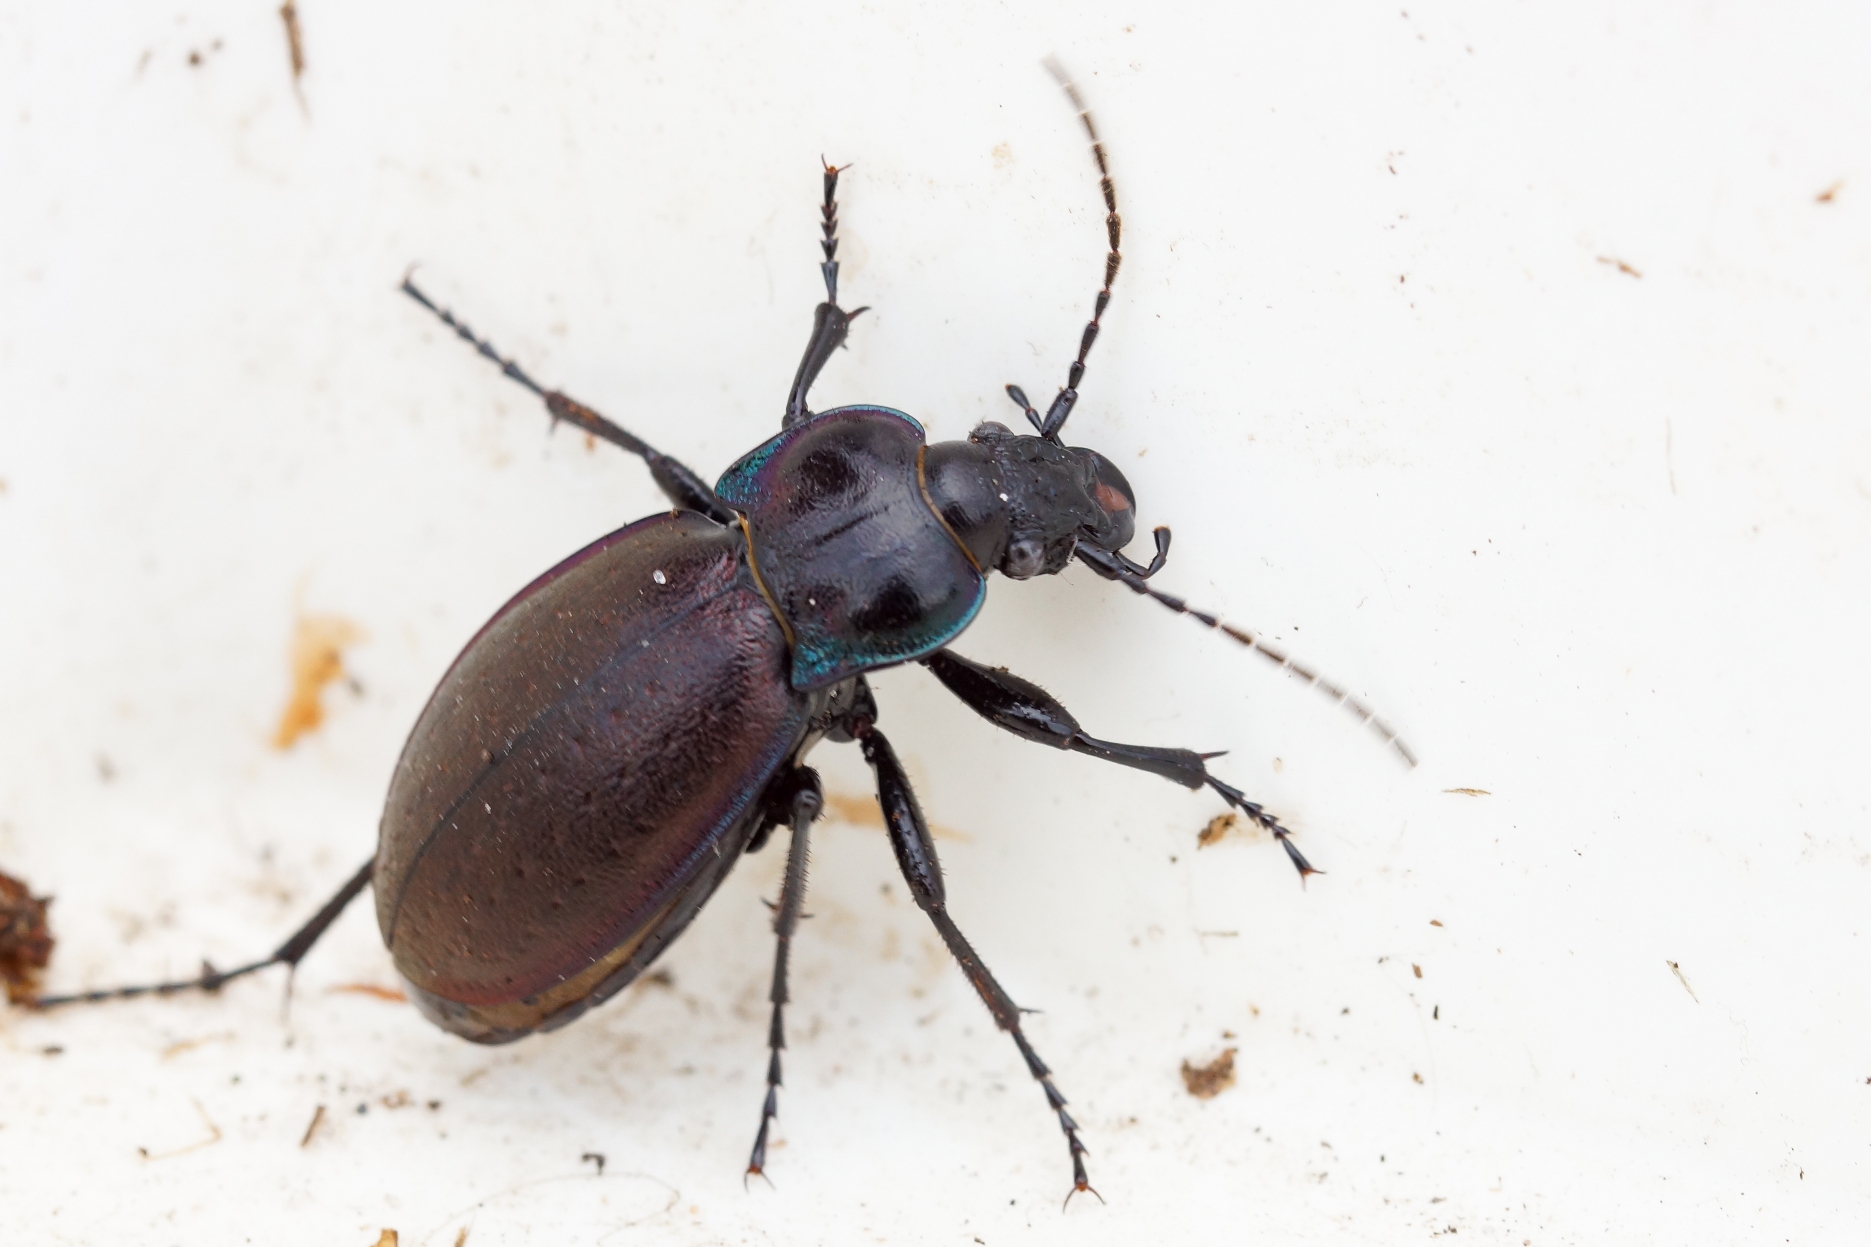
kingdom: Animalia
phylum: Arthropoda
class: Insecta
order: Coleoptera
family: Carabidae
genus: Carabus
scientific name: Carabus nemoralis
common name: Kratløber
